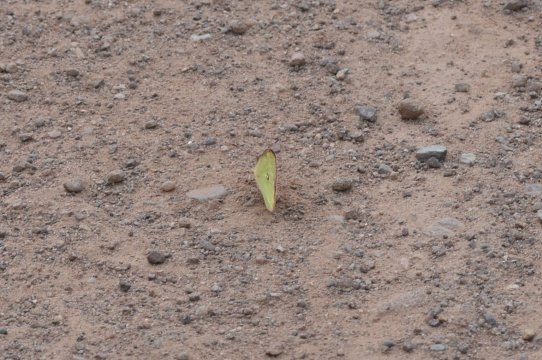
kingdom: Animalia
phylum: Arthropoda
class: Insecta
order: Lepidoptera
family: Pieridae
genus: Colias
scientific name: Colias interior
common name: Pink-edged Sulphur
